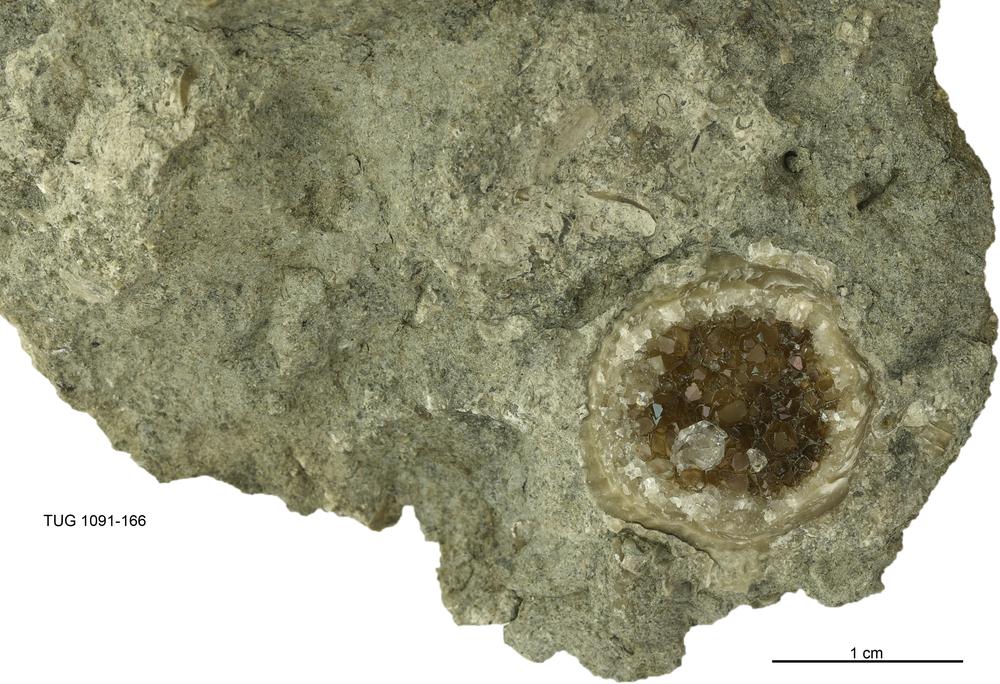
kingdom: Animalia
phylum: Brachiopoda
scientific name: Brachiopoda
